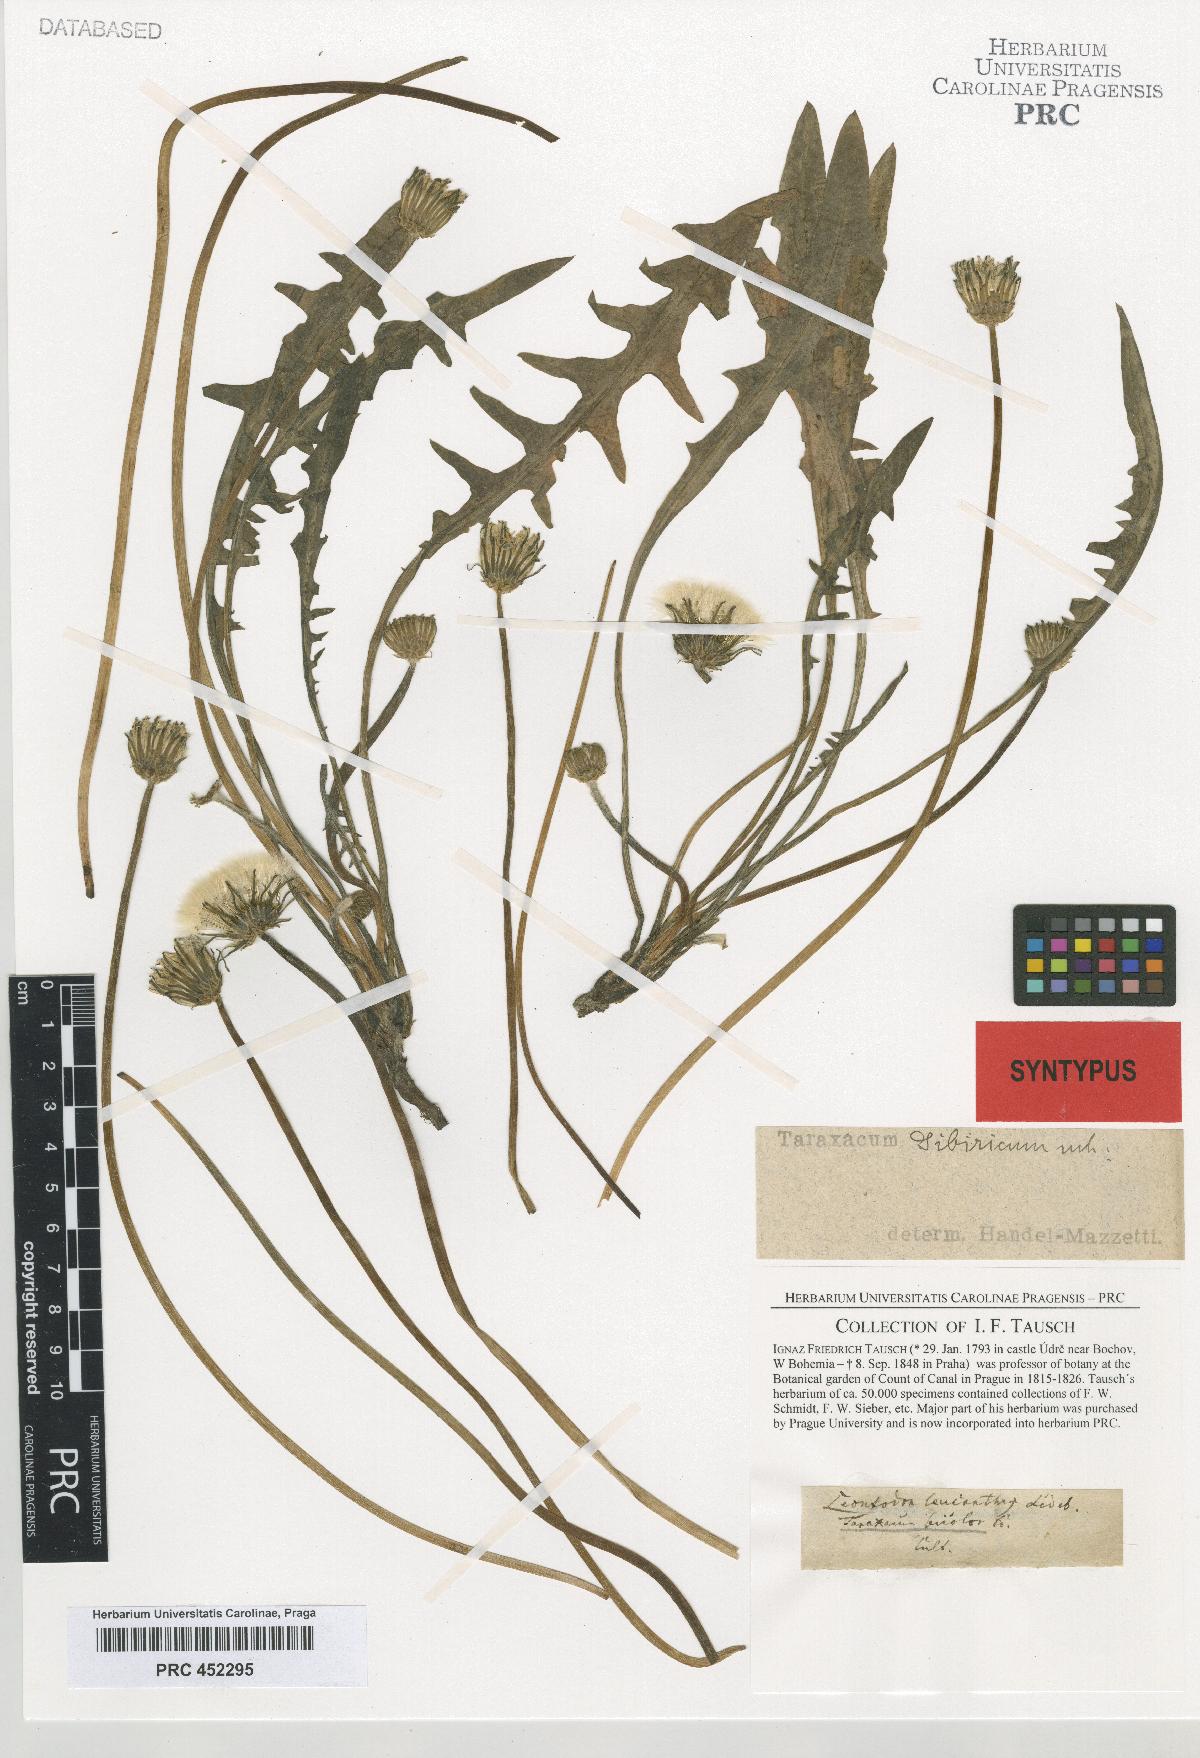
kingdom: Plantae
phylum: Tracheophyta
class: Magnoliopsida
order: Asterales
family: Asteraceae
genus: Taraxacum
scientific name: Taraxacum sibiricum
